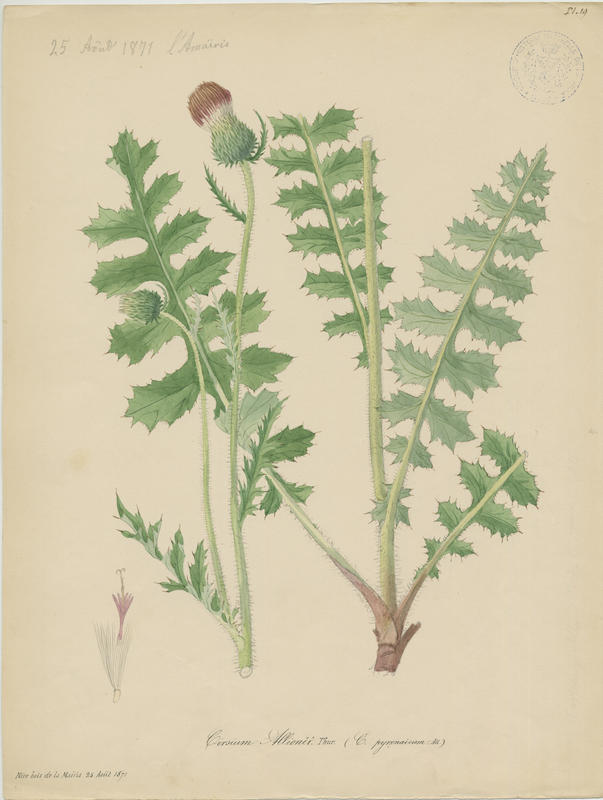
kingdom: Plantae
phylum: Tracheophyta
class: Magnoliopsida
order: Asterales
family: Asteraceae
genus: Cirsium
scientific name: Cirsium alsophilum
